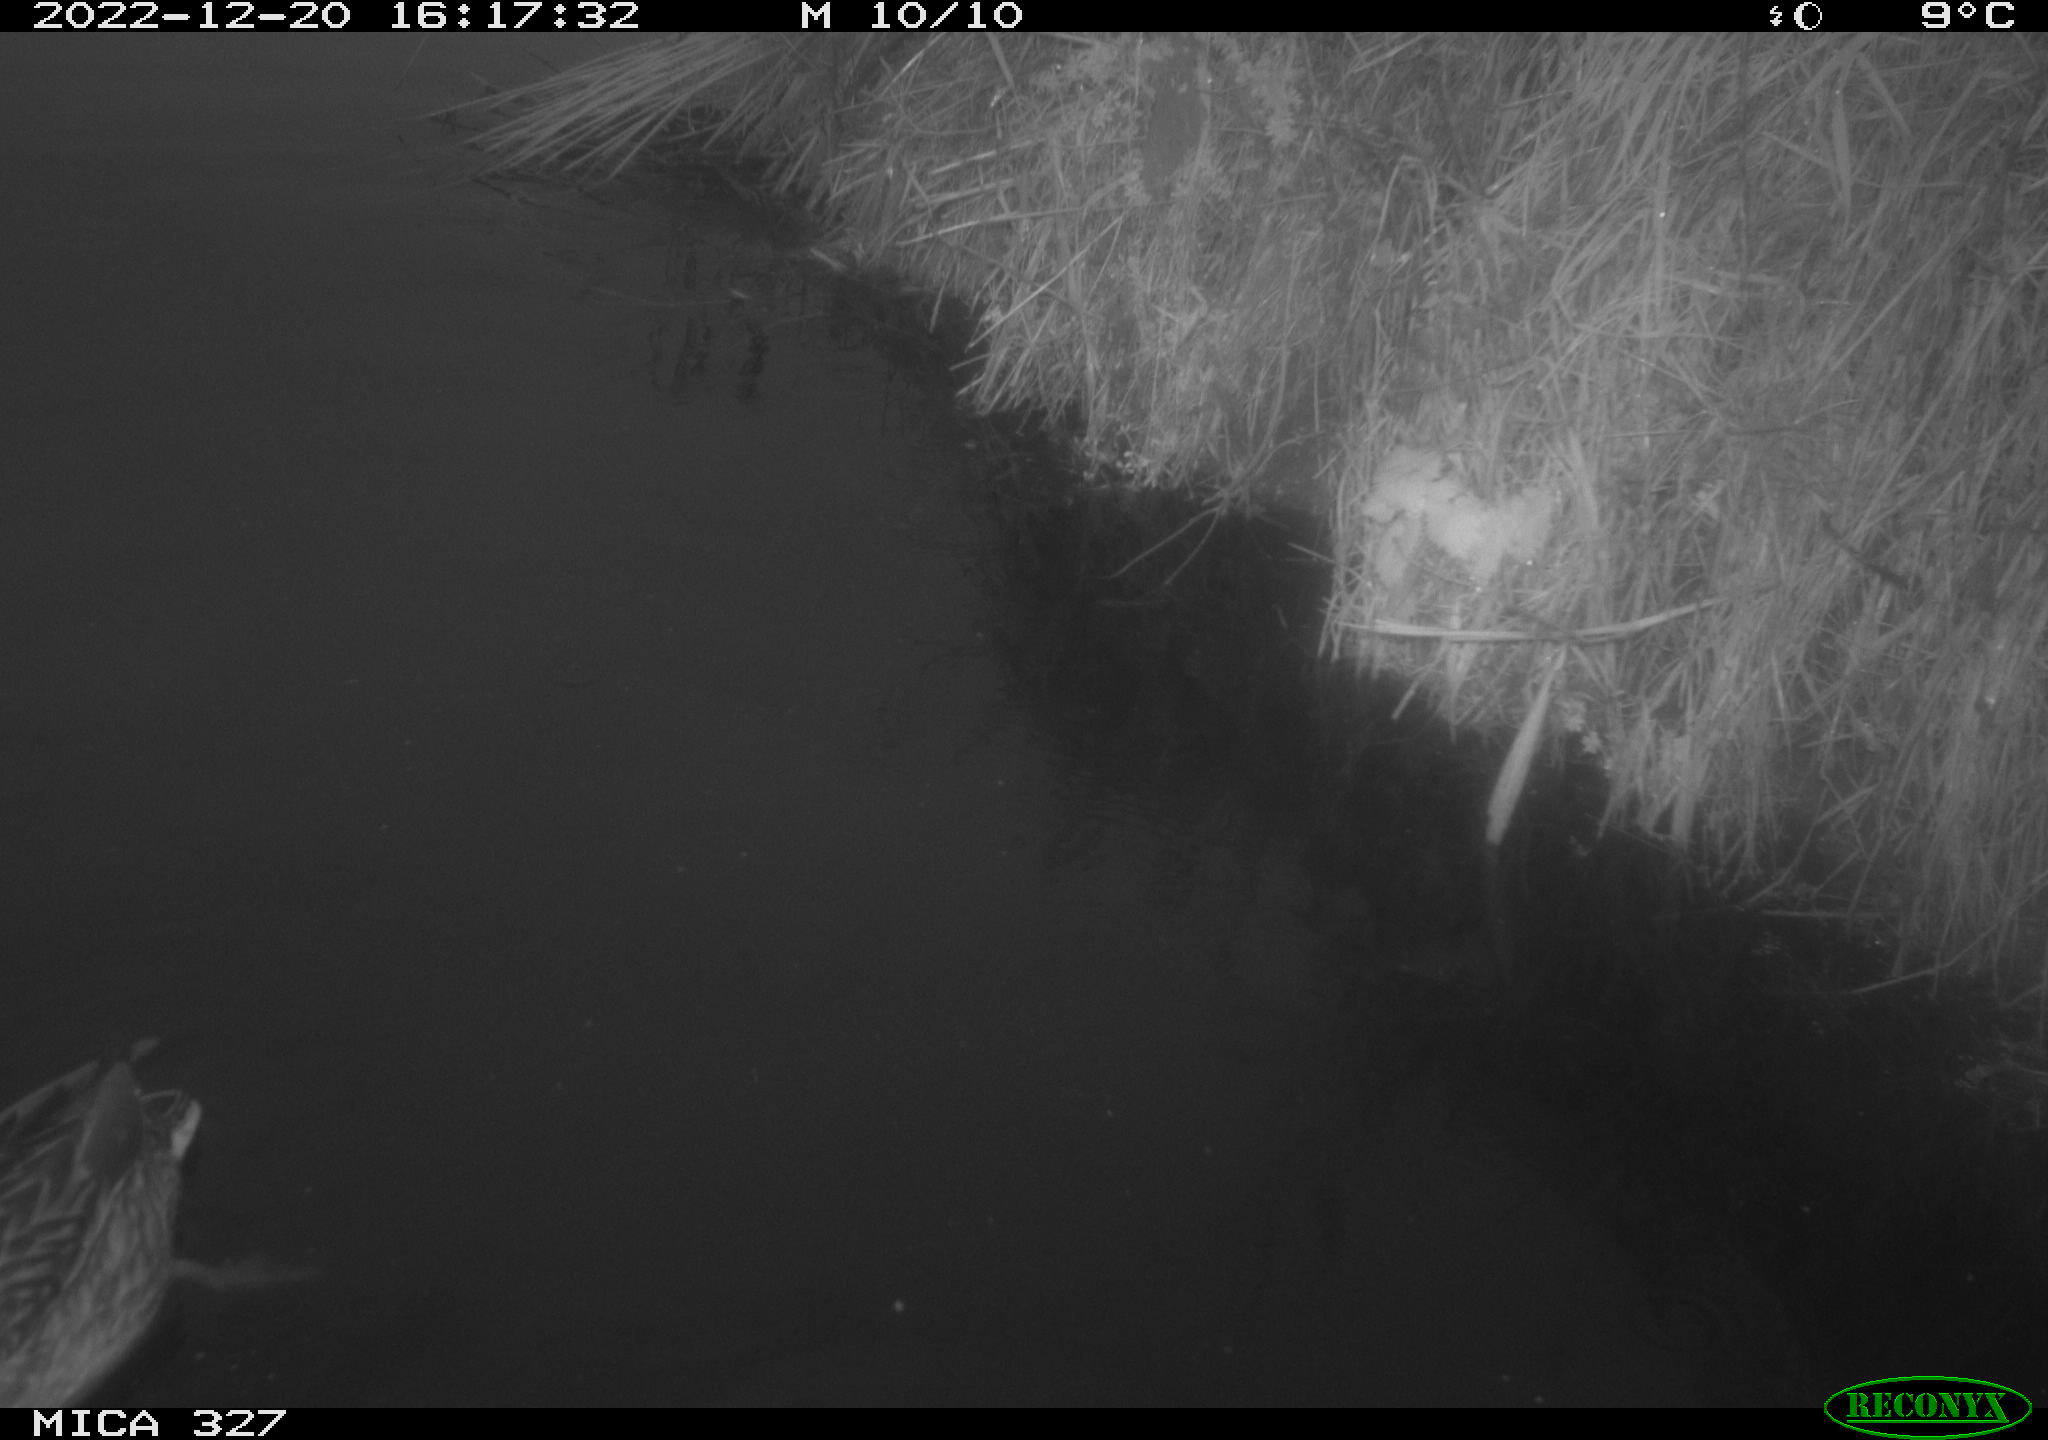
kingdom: Animalia
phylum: Chordata
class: Aves
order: Anseriformes
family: Anatidae
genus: Anas
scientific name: Anas
